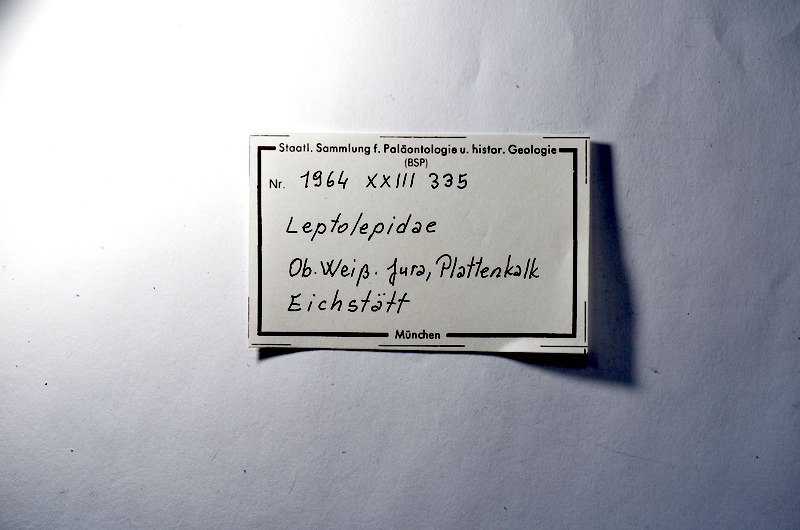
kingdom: Animalia
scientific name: Animalia
